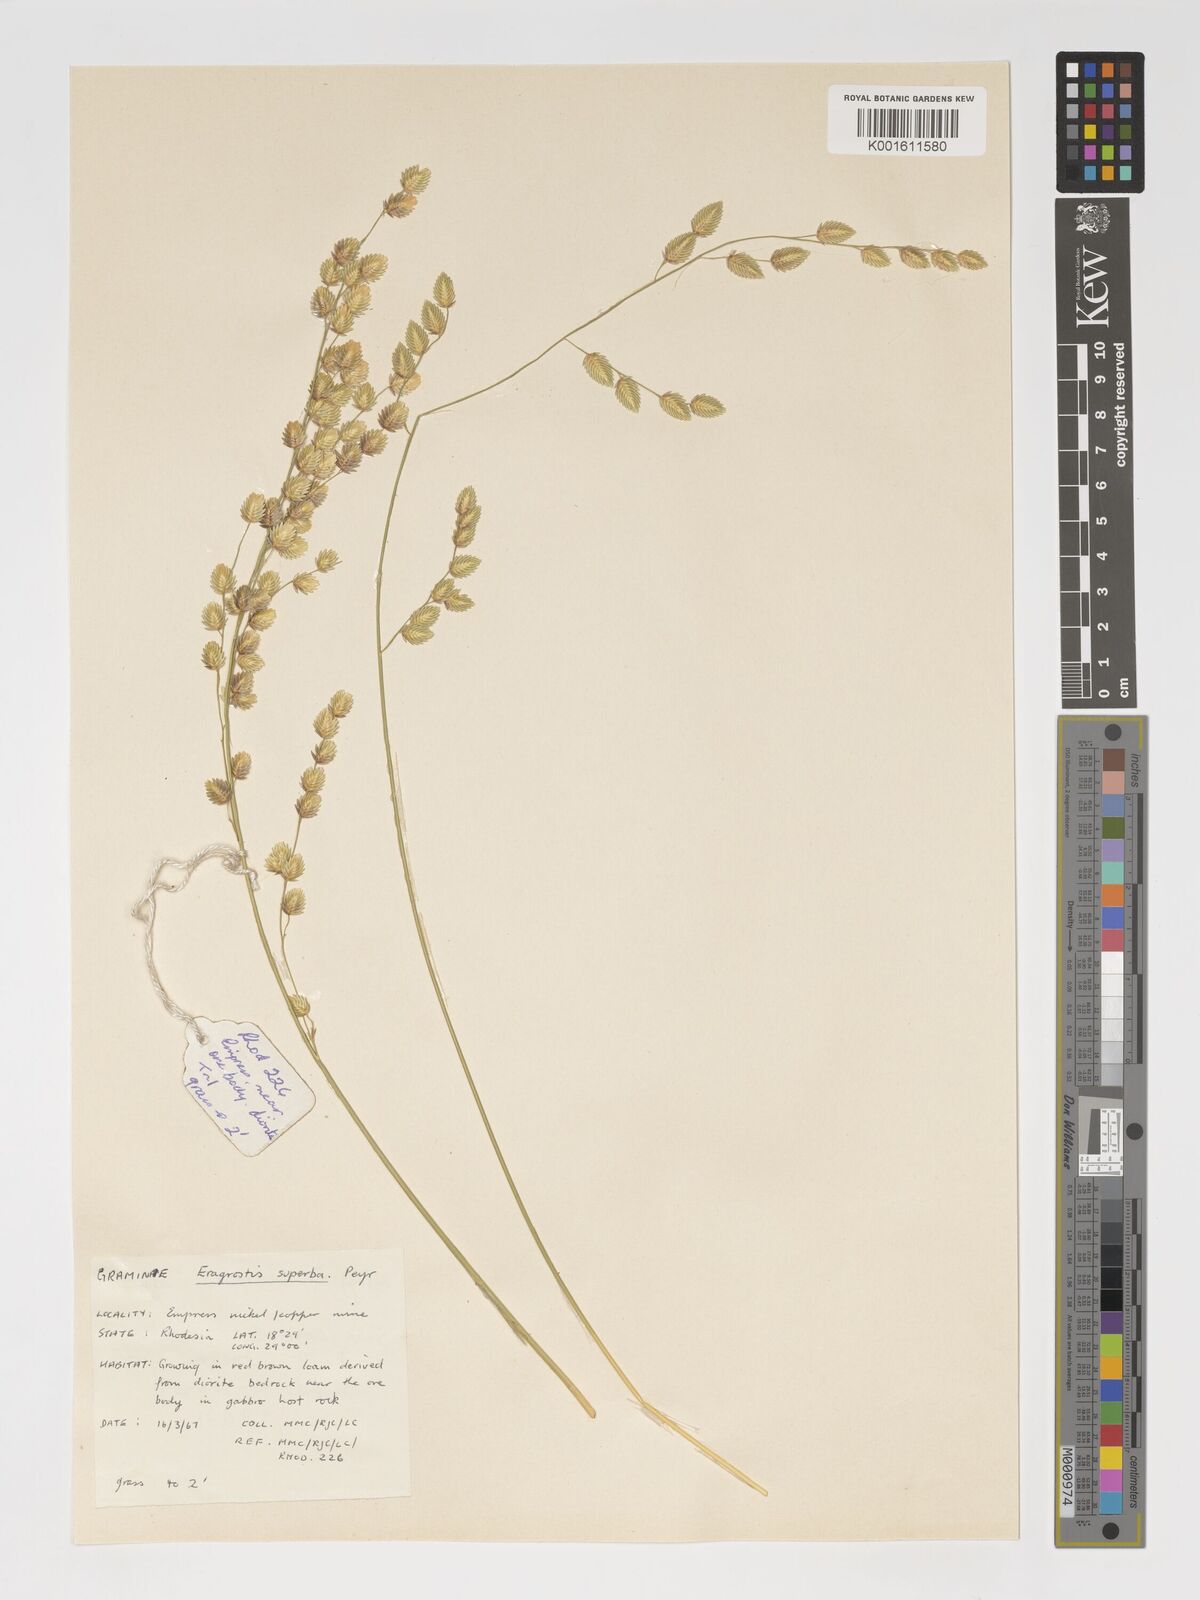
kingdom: Plantae
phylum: Tracheophyta
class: Liliopsida
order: Poales
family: Poaceae
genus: Eragrostis
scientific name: Eragrostis superba
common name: Wilman lovegrass
